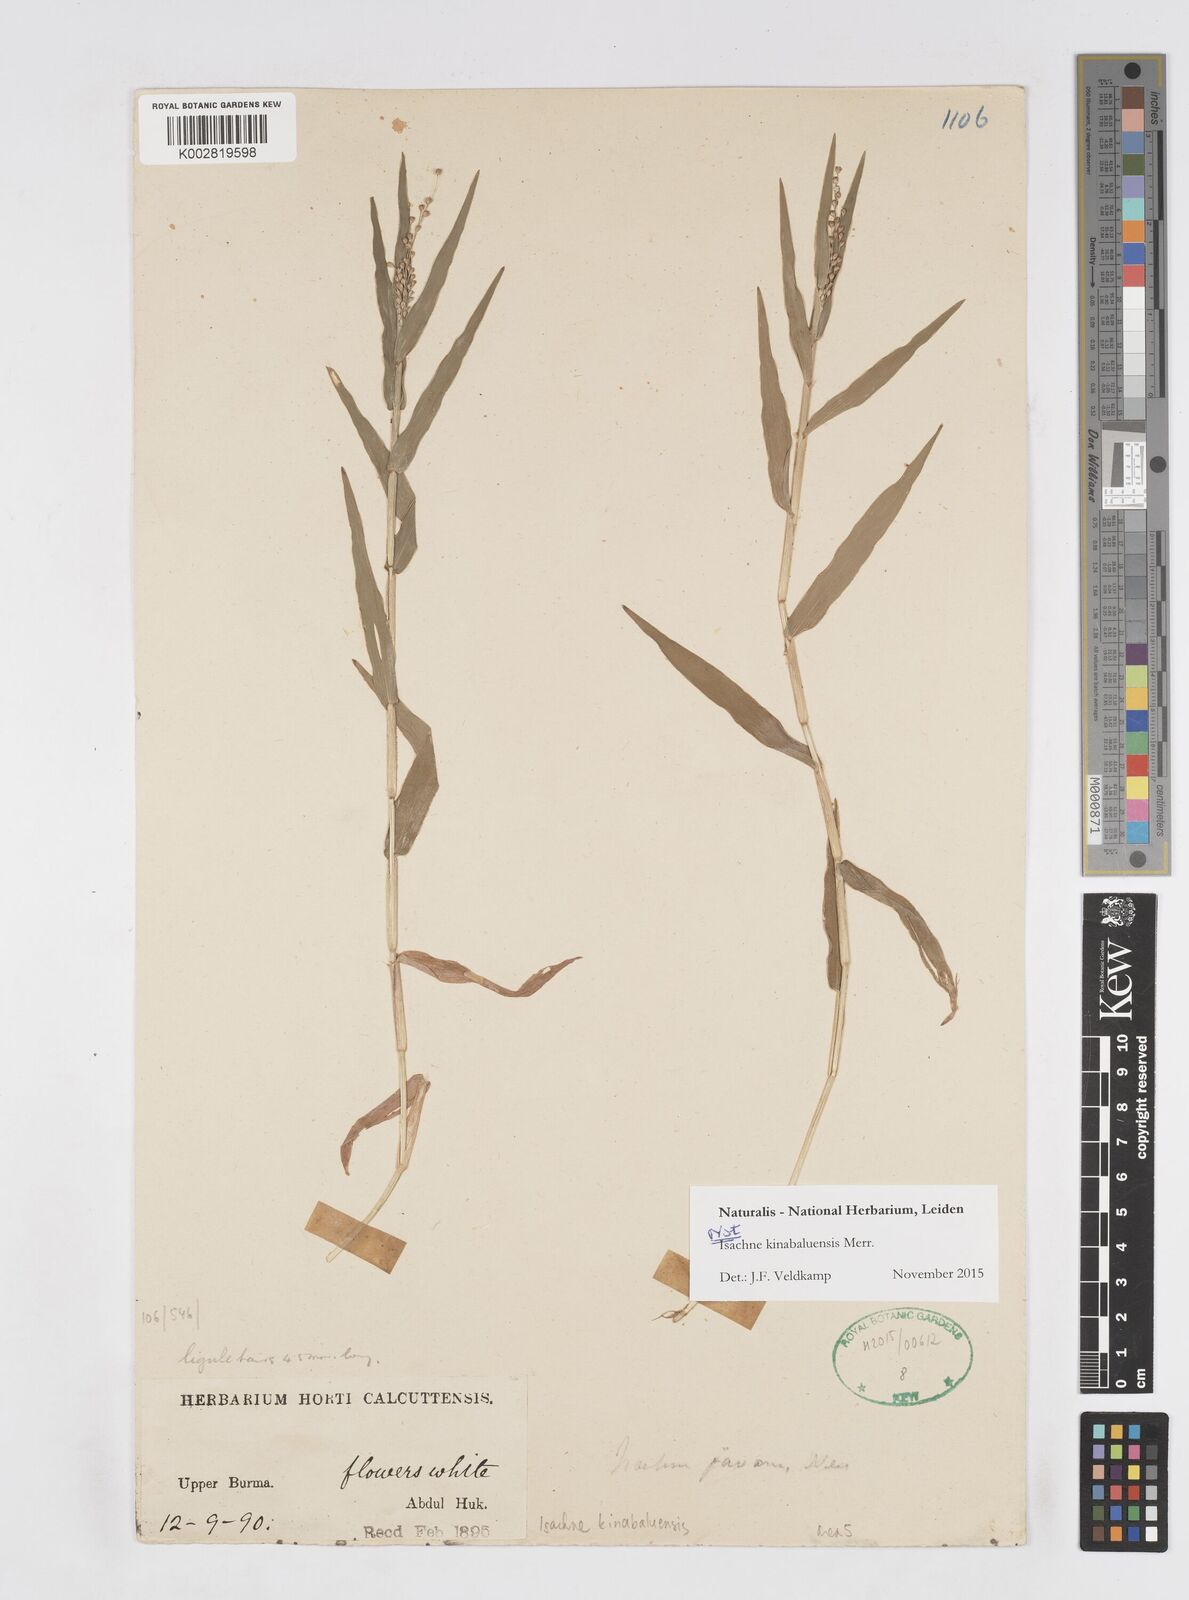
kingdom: Plantae
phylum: Tracheophyta
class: Liliopsida
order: Poales
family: Poaceae
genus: Isachne
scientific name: Isachne kinabaluensis
